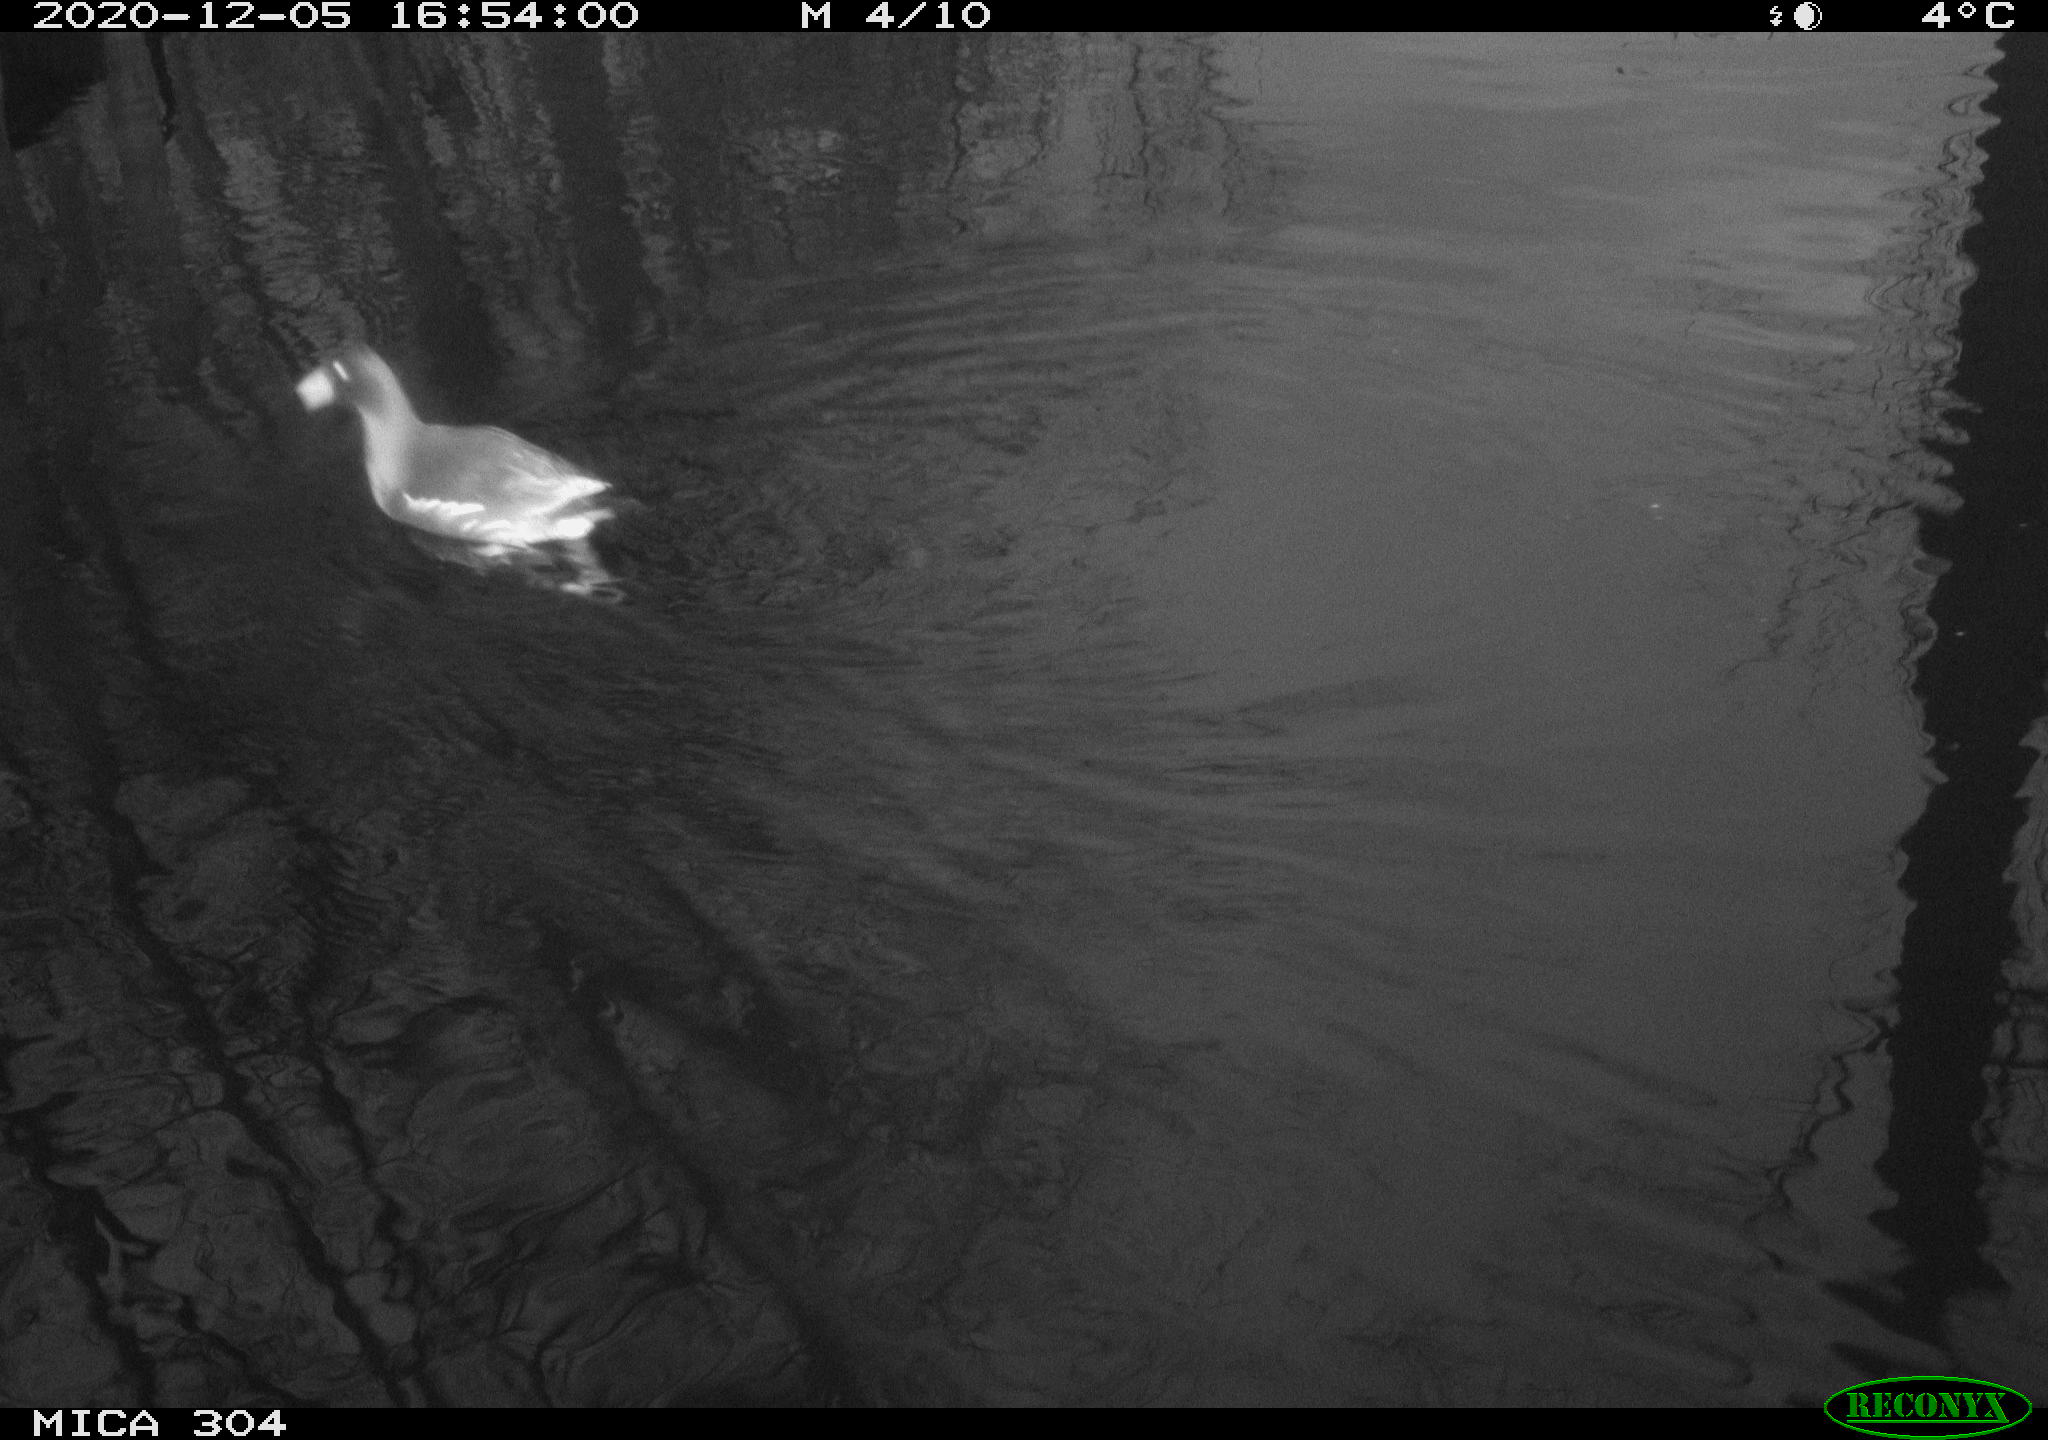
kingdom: Animalia
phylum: Chordata
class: Aves
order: Gruiformes
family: Rallidae
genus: Gallinula
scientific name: Gallinula chloropus
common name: Common moorhen
